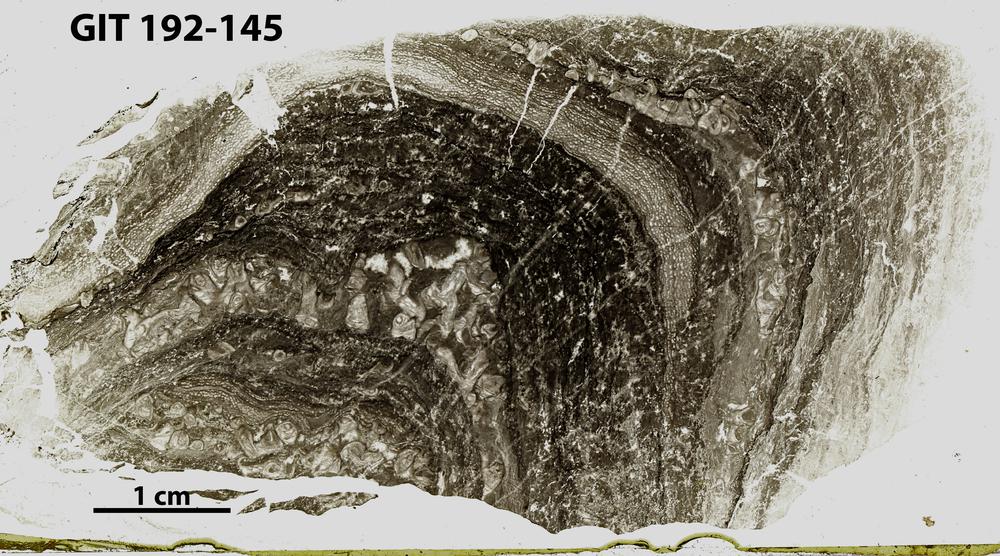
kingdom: Animalia
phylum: Porifera
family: Ecclimadictyidae
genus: Plexodictyon
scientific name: Plexodictyon
